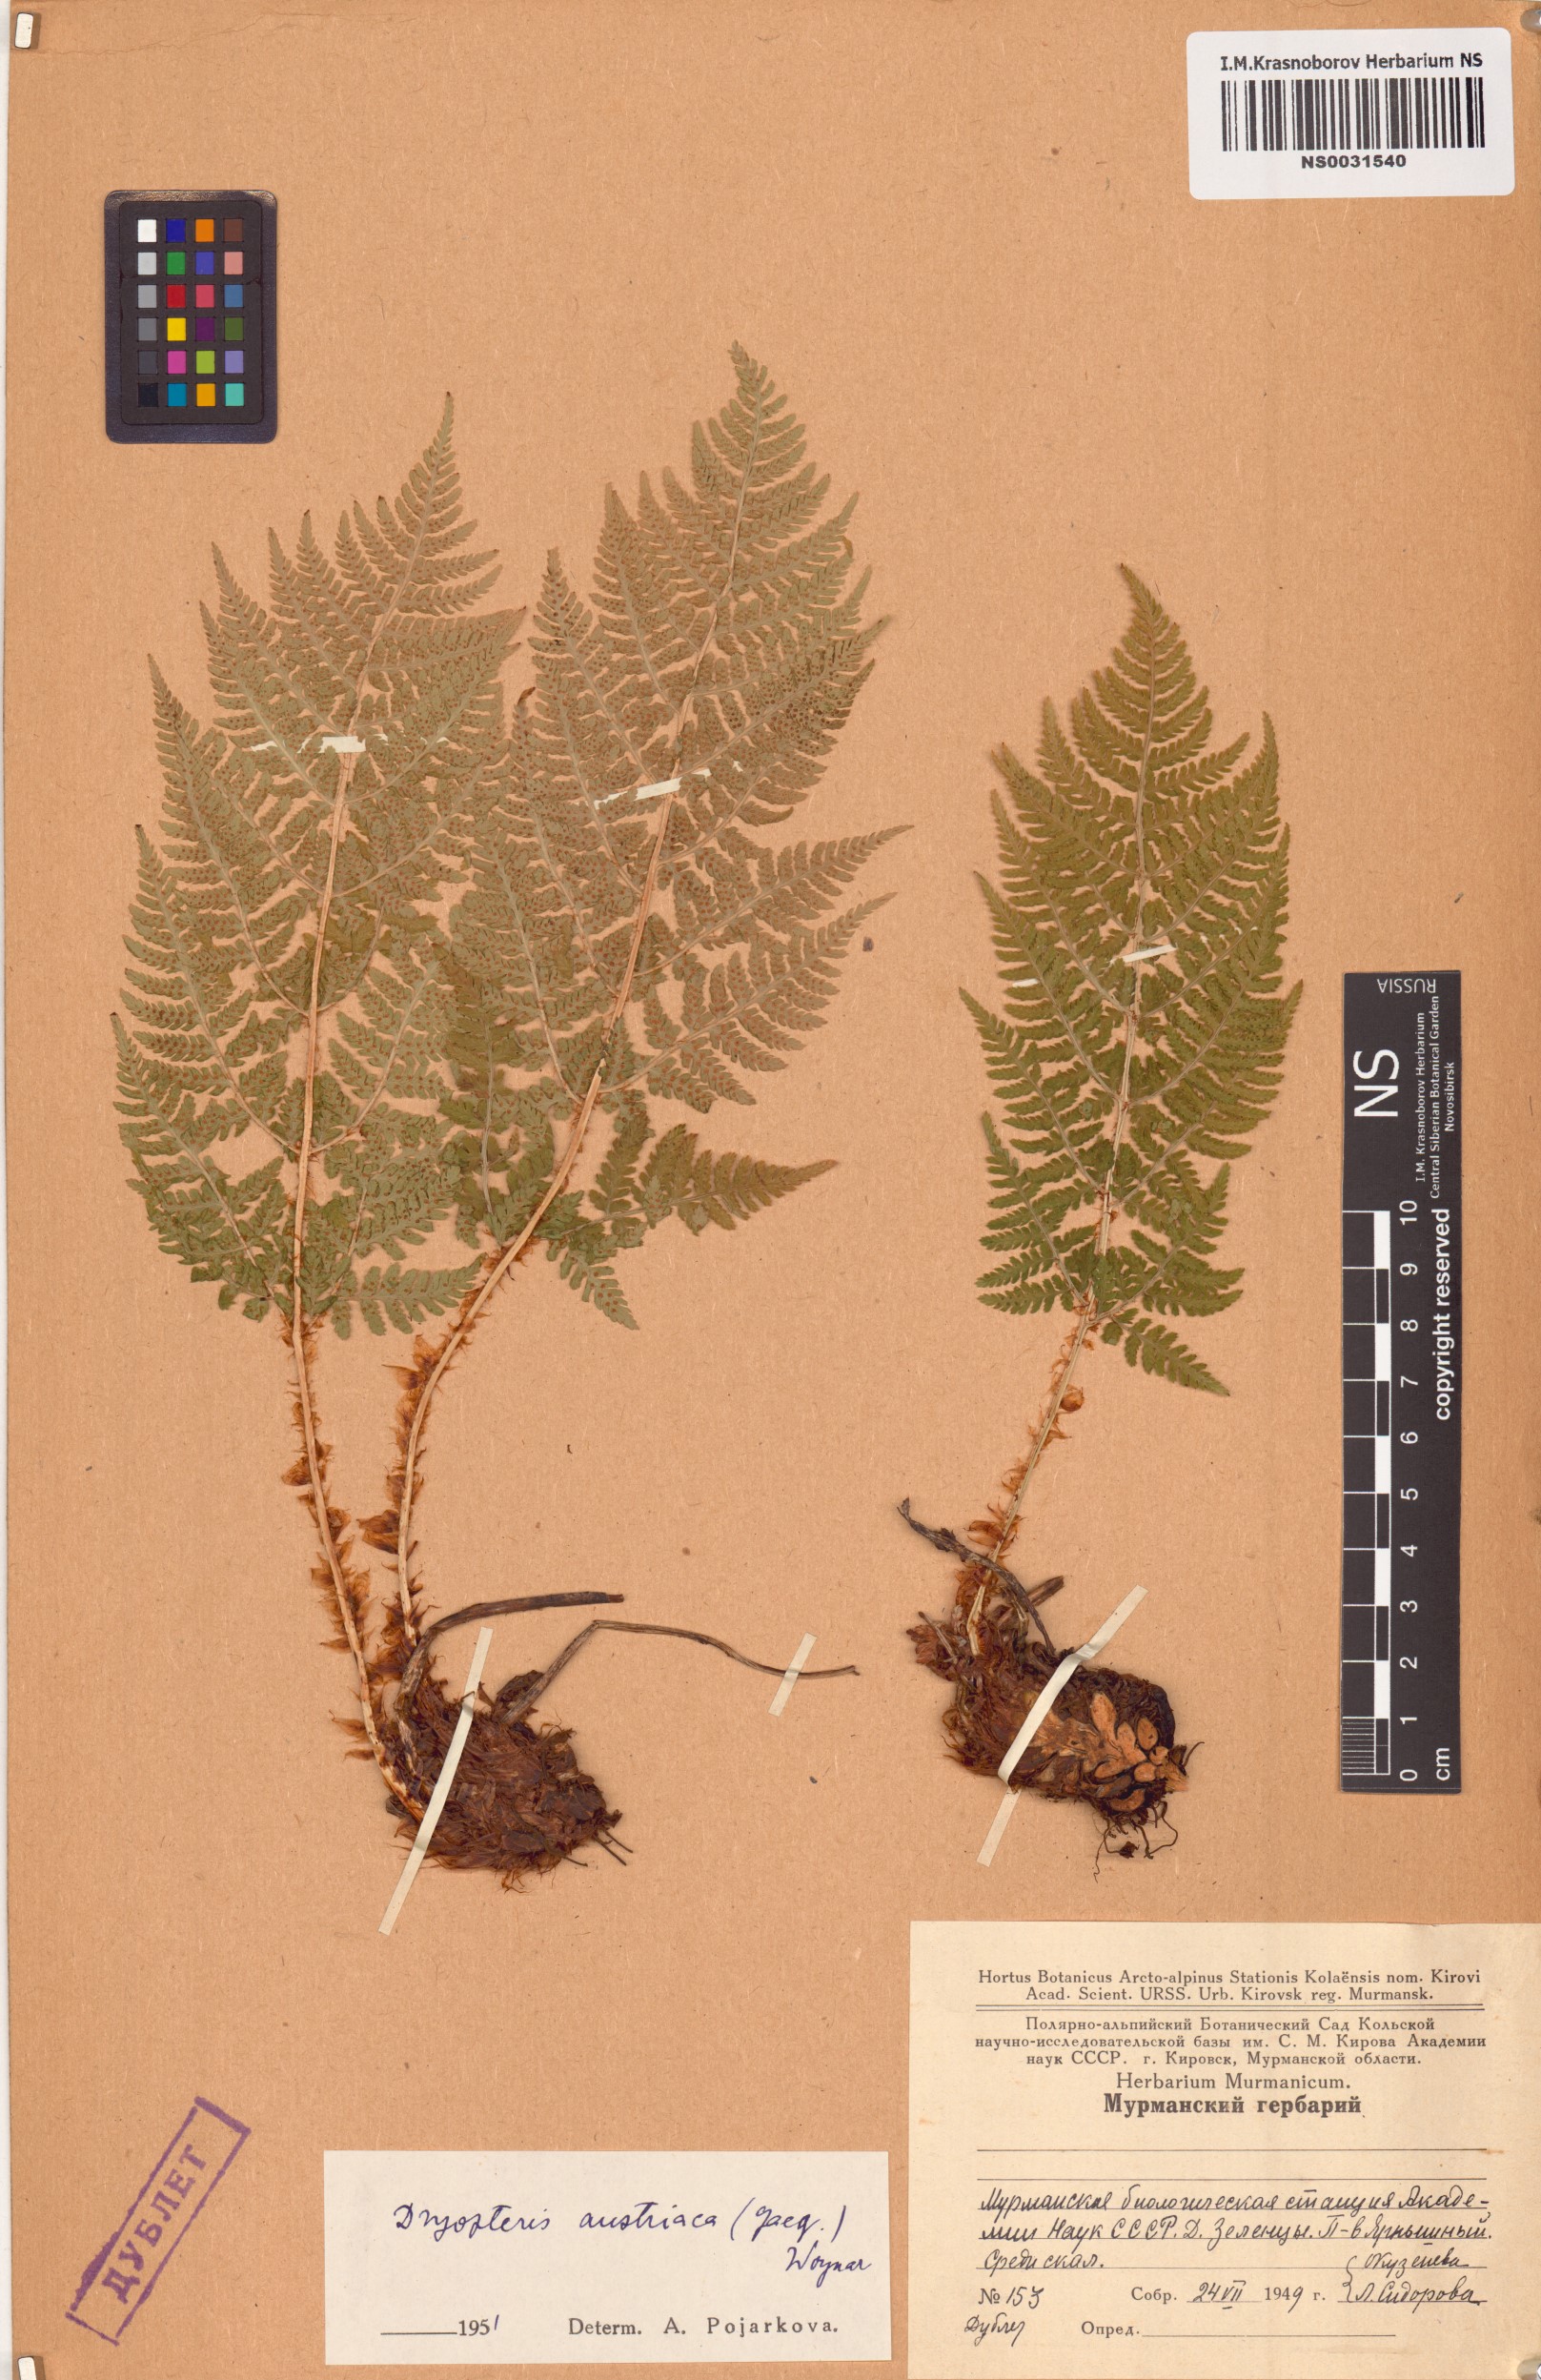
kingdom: Plantae
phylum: Tracheophyta
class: Polypodiopsida
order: Polypodiales
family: Dryopteridaceae
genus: Dryopteris
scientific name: Dryopteris dilatata
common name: Broad buckler-fern
